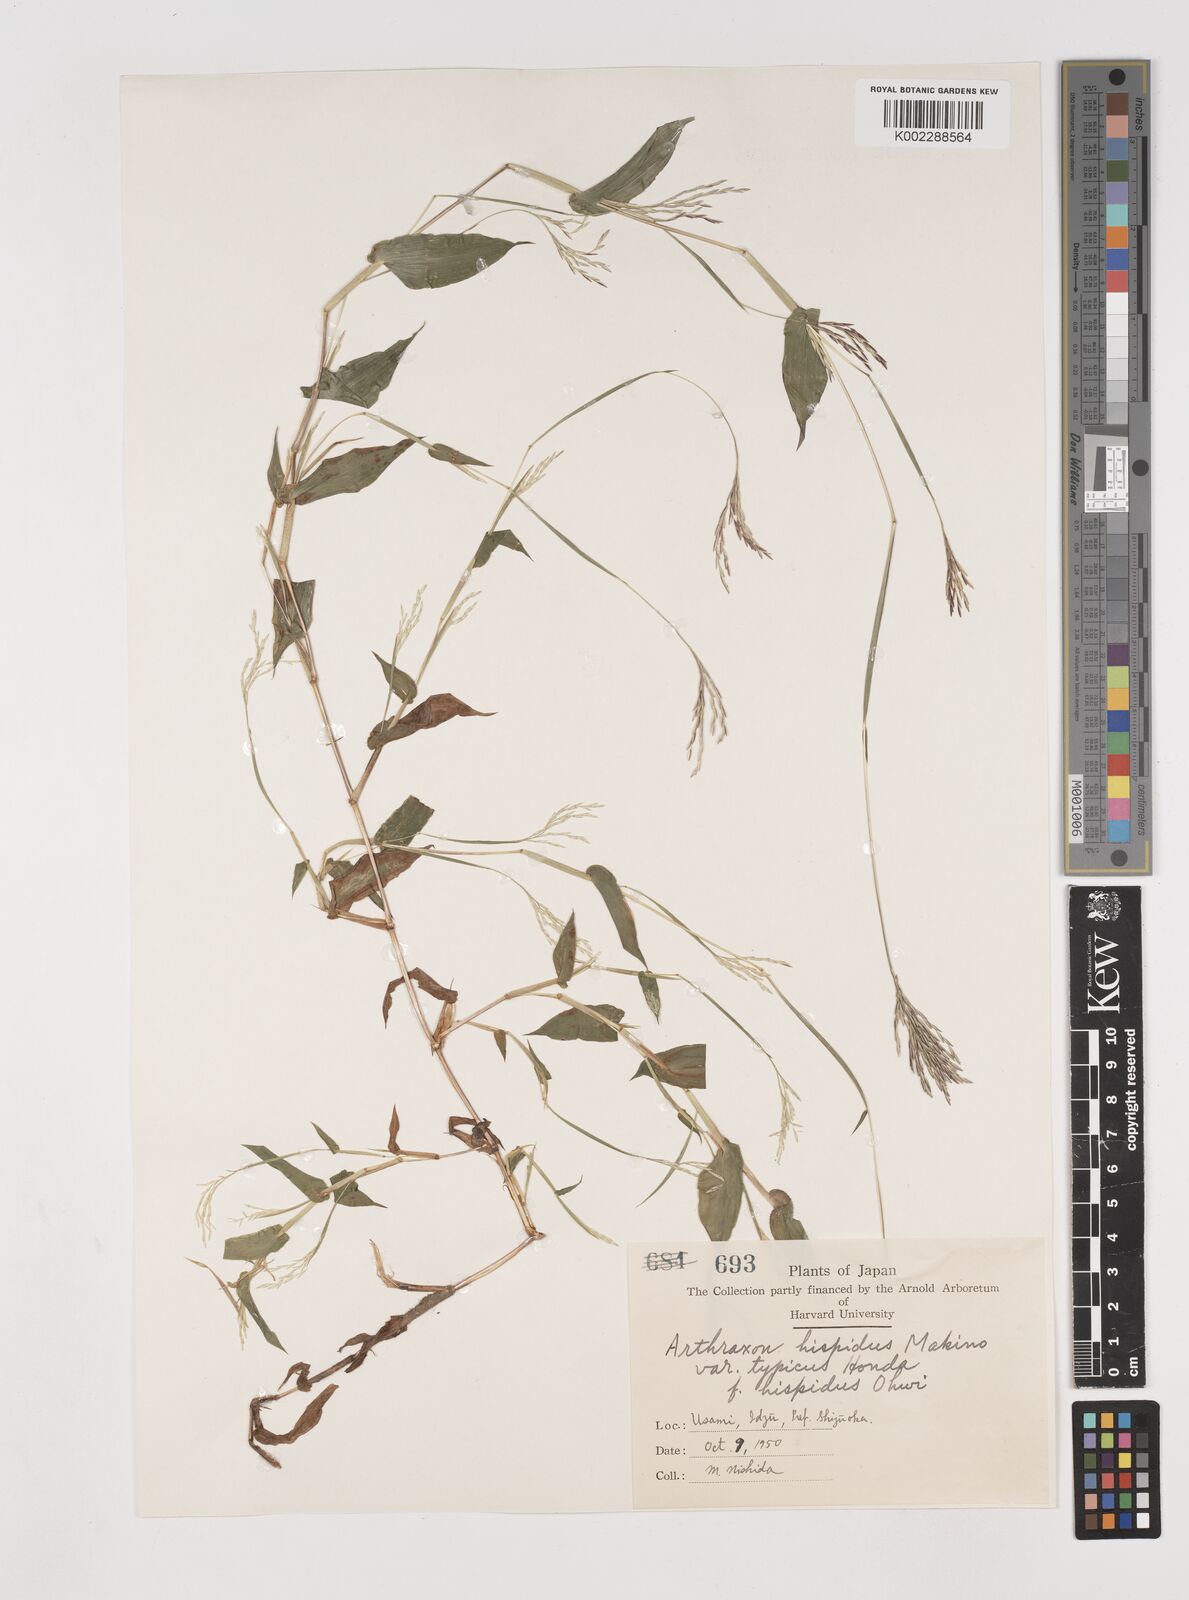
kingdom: Plantae
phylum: Tracheophyta
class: Liliopsida
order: Poales
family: Poaceae
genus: Arthraxon
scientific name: Arthraxon hispidus
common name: Small carpgrass
